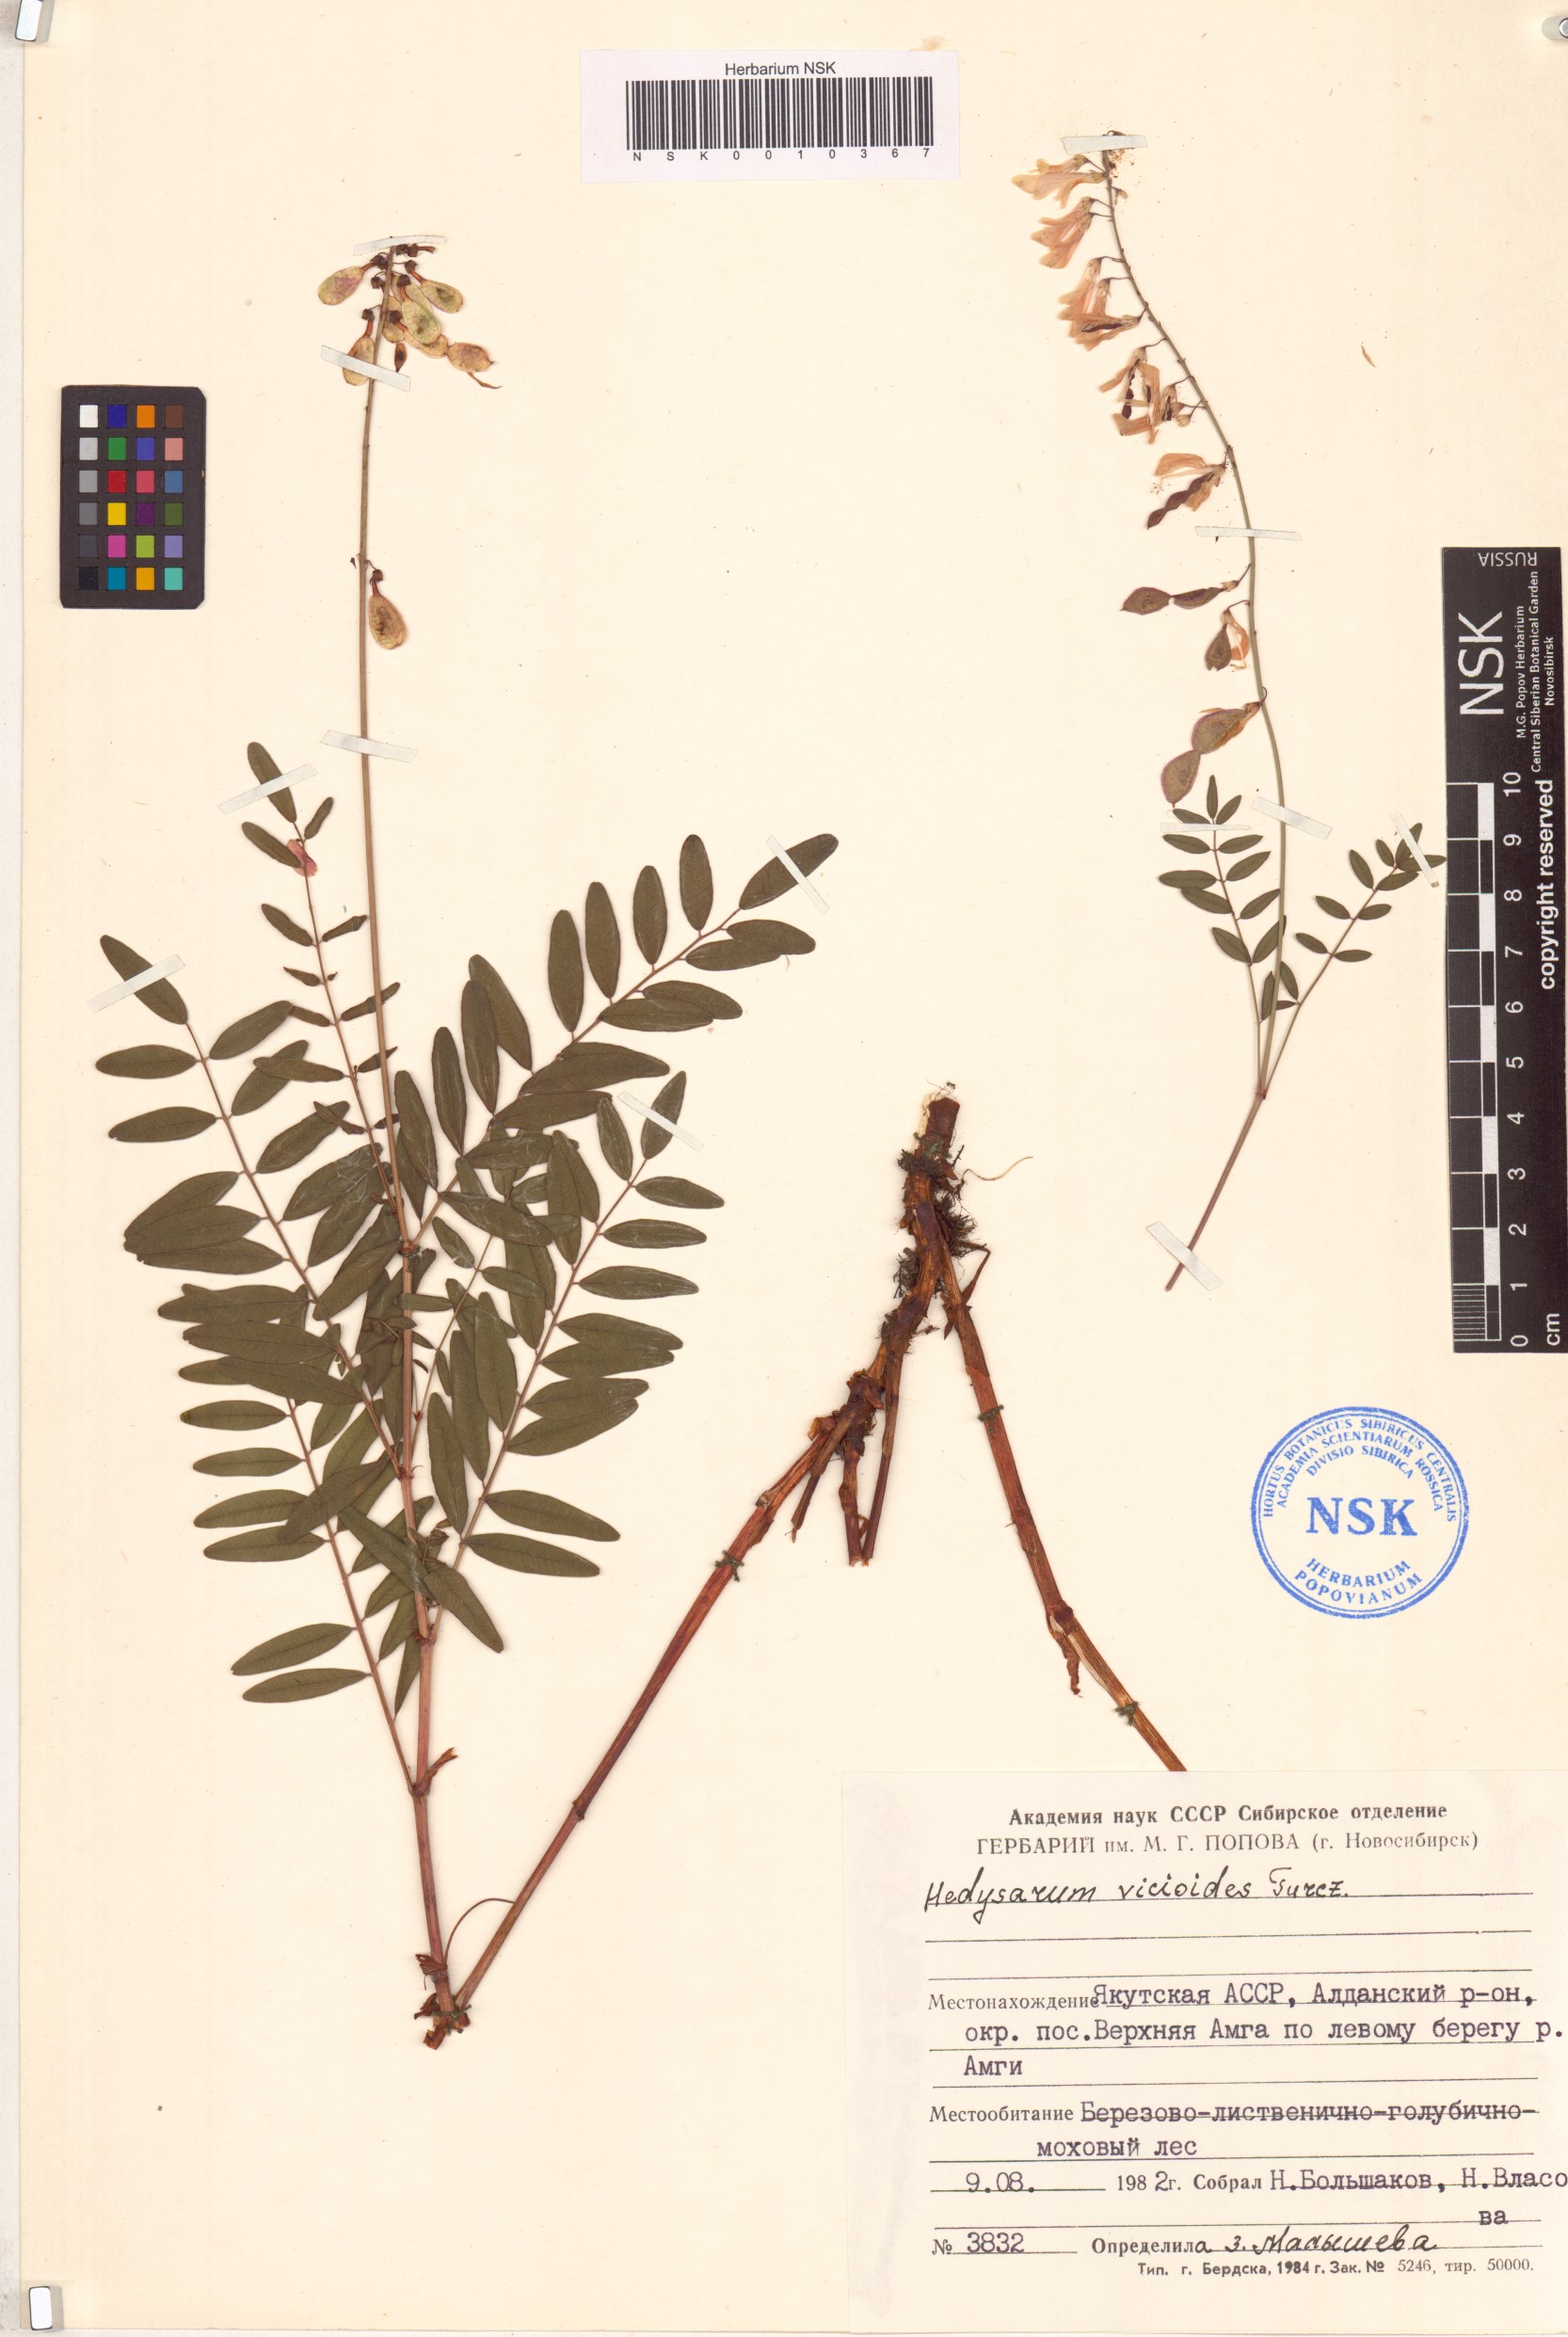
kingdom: Plantae
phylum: Tracheophyta
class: Magnoliopsida
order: Fabales
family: Fabaceae
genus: Hedysarum
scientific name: Hedysarum vicioides
